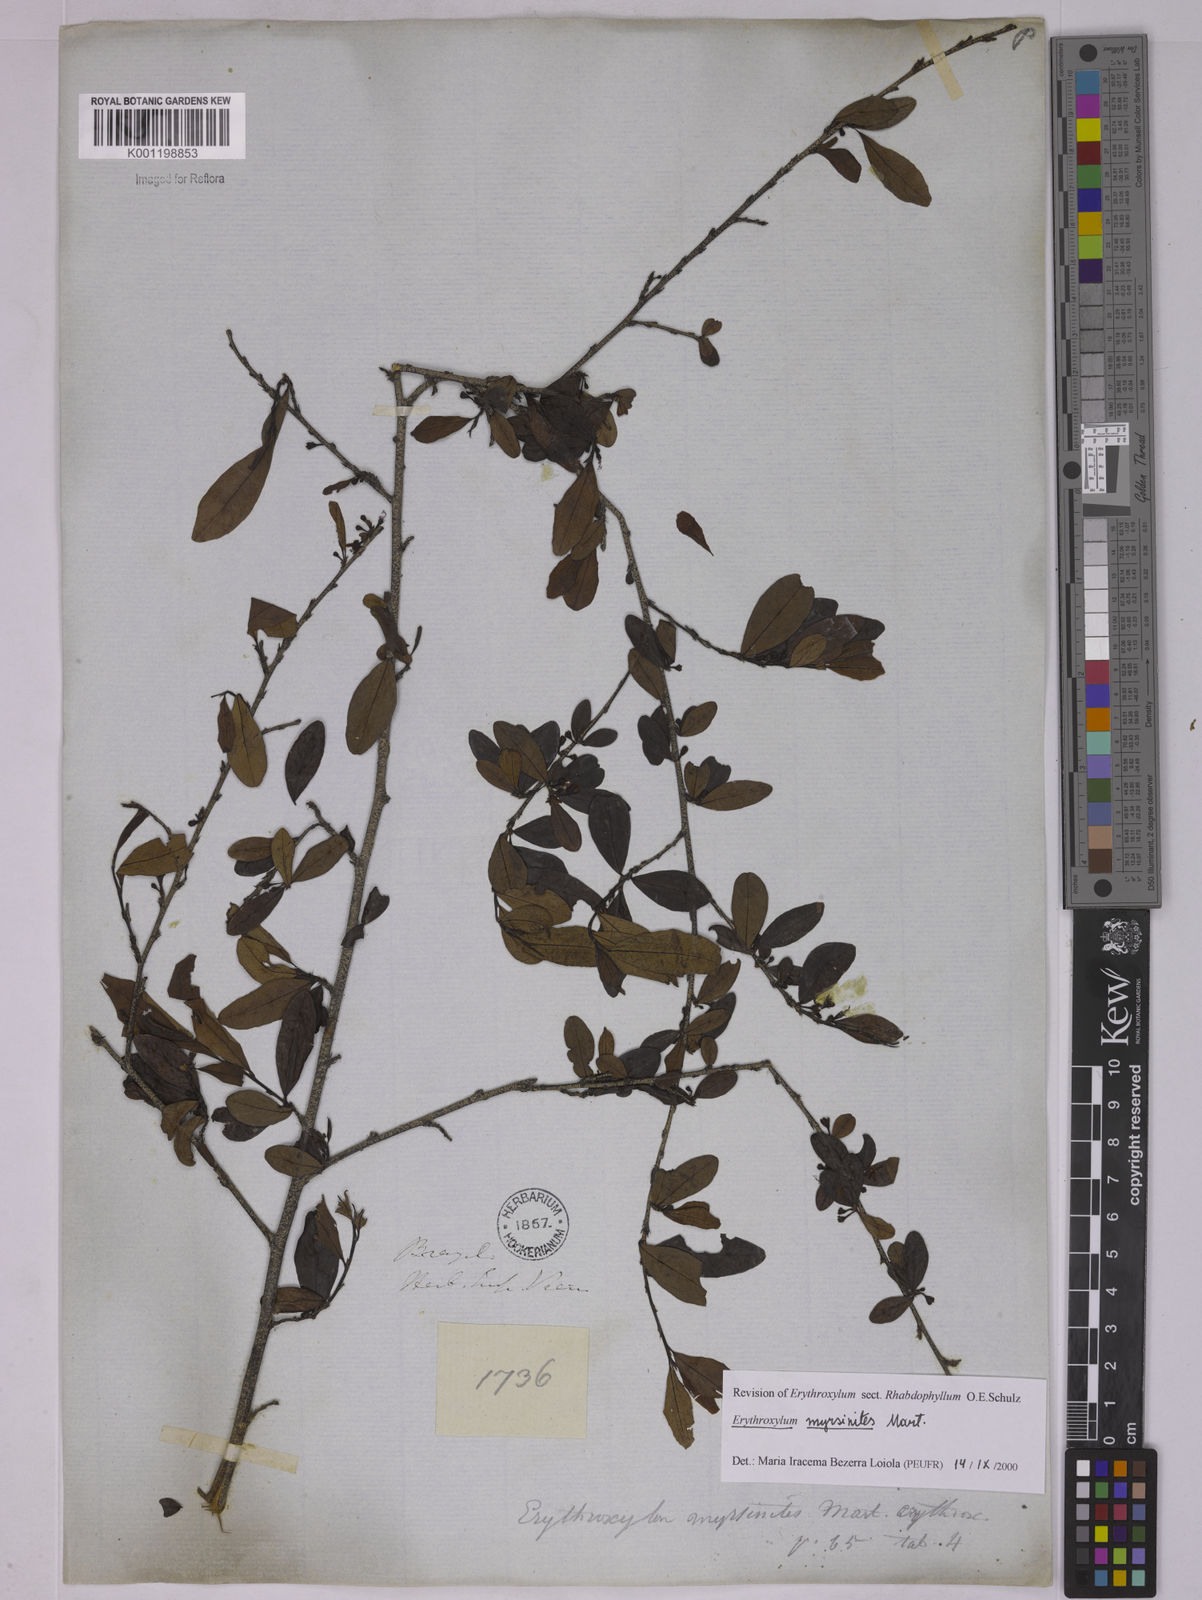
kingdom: Plantae
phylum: Tracheophyta
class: Magnoliopsida
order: Malpighiales
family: Erythroxylaceae
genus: Erythroxylum
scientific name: Erythroxylum myrsinites
